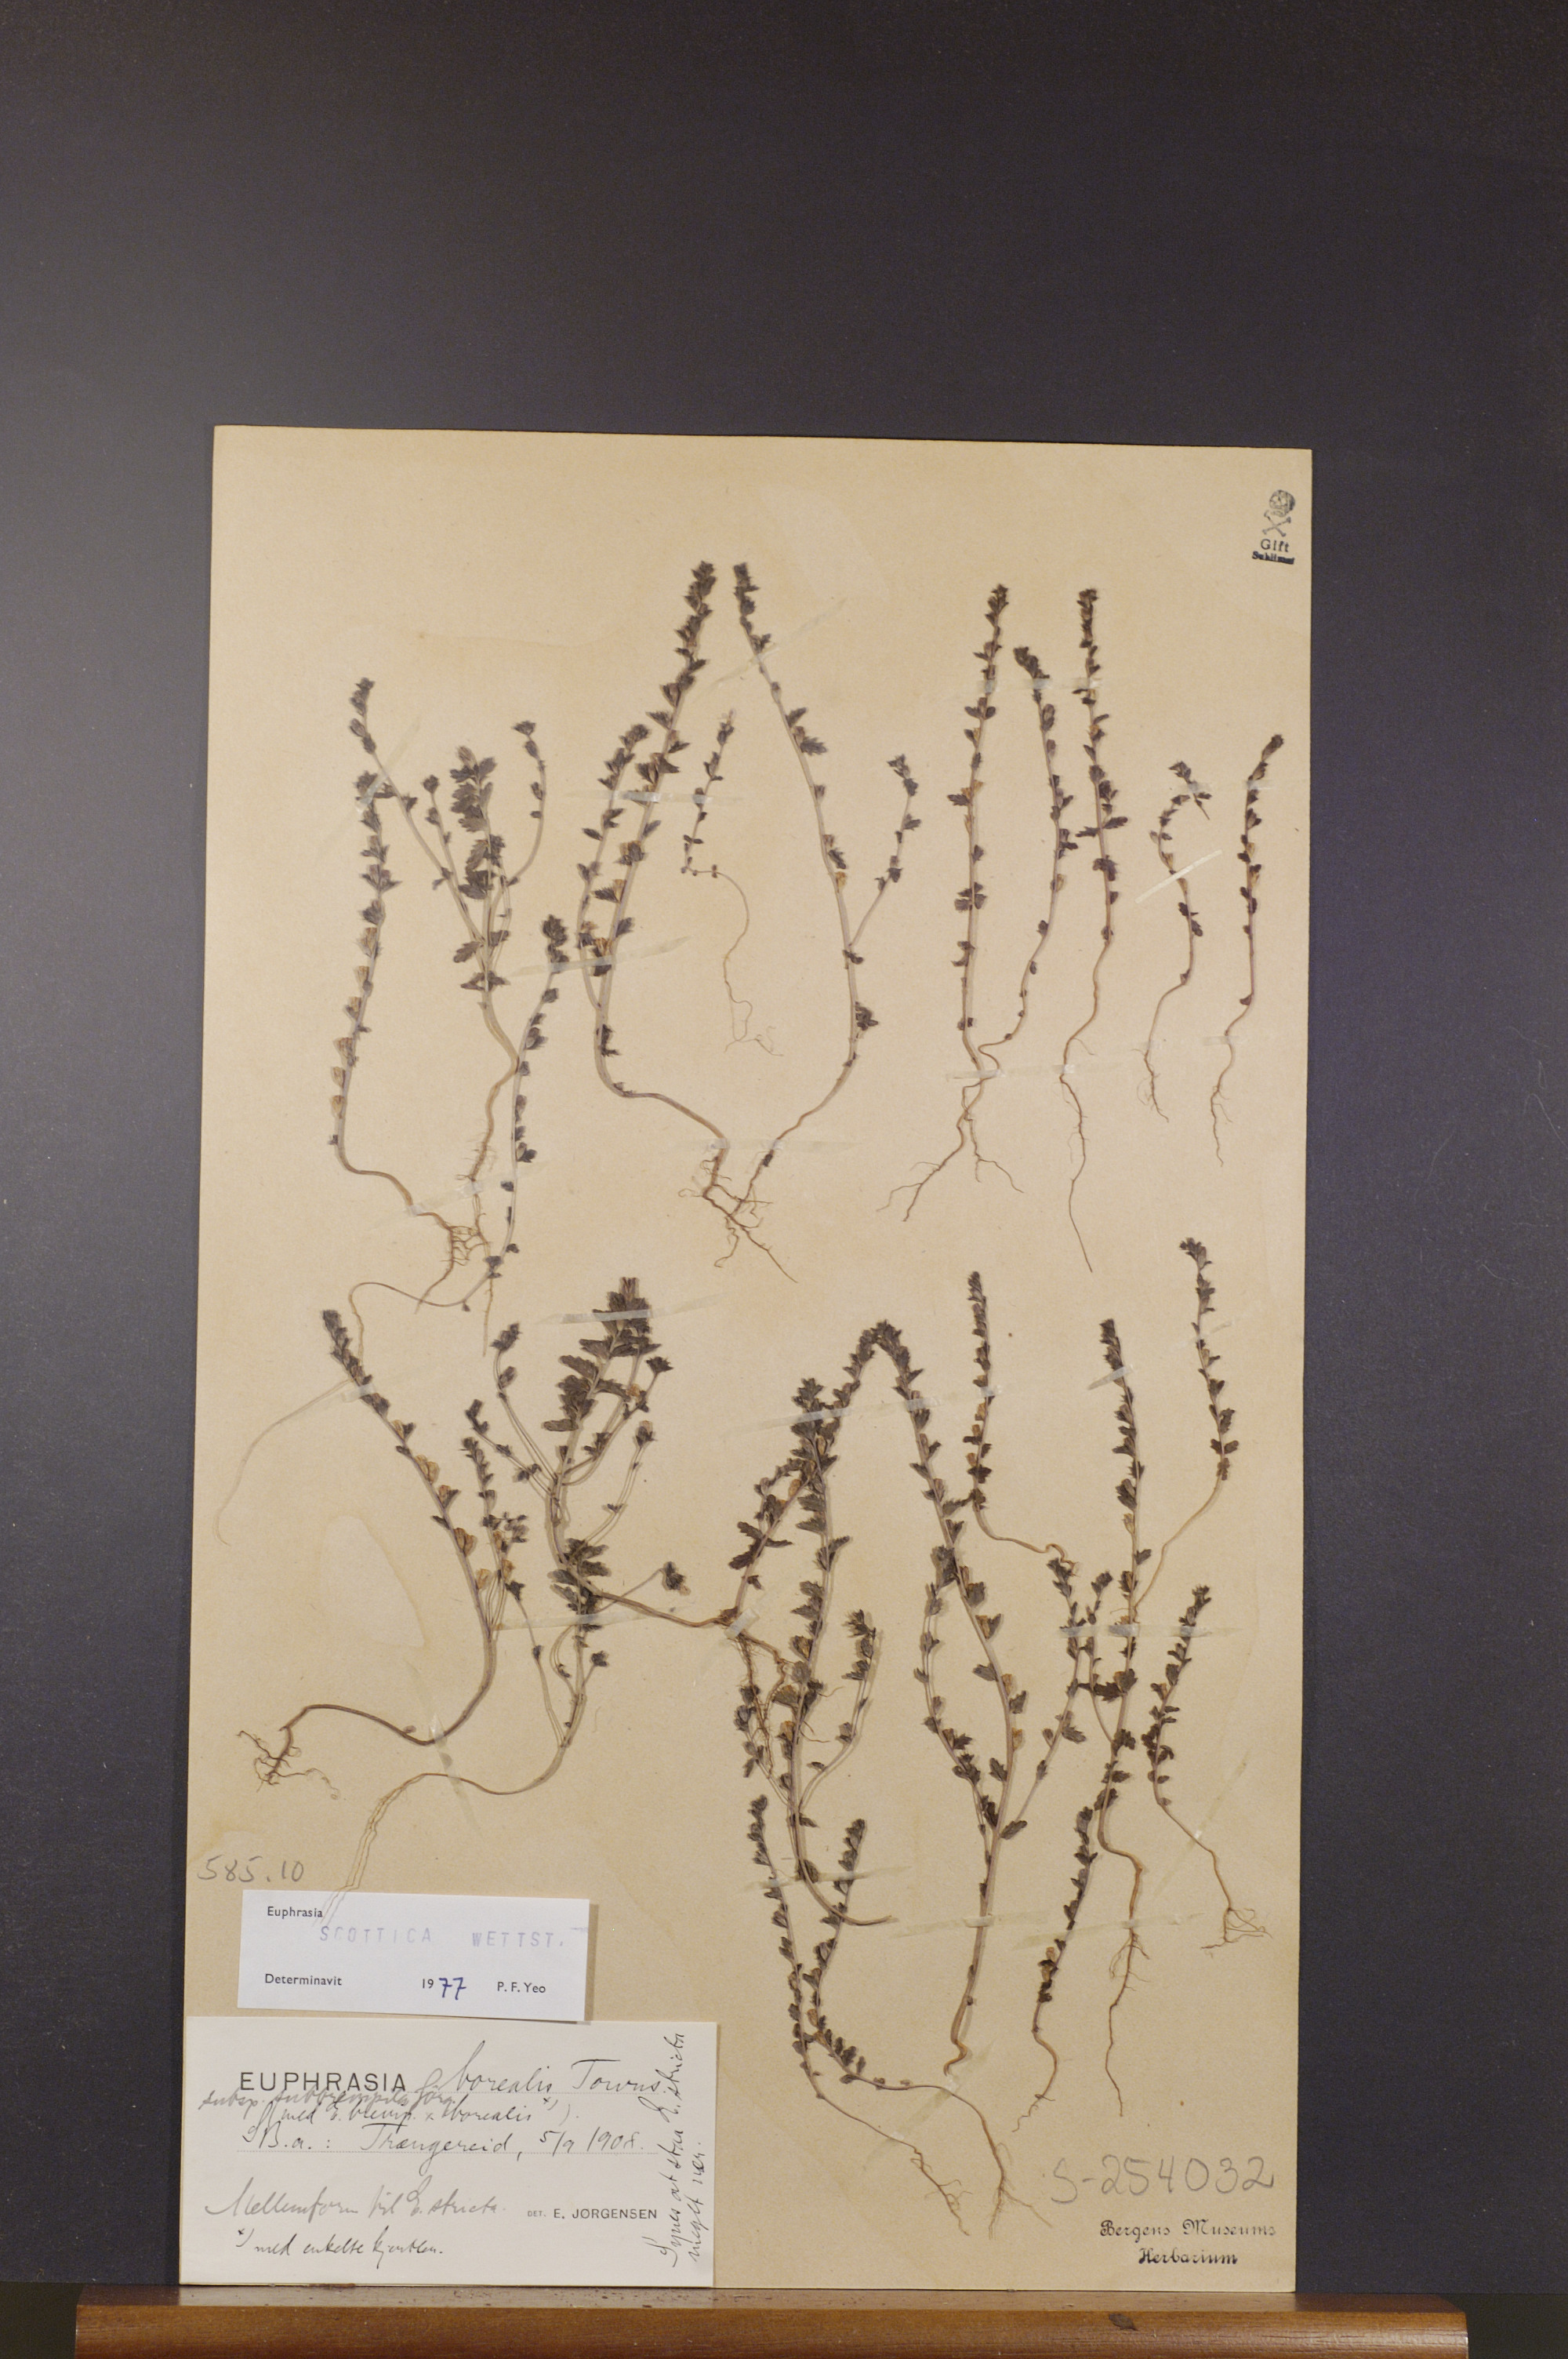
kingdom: Plantae
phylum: Tracheophyta
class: Magnoliopsida
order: Lamiales
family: Orobanchaceae
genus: Euphrasia
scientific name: Euphrasia scottica
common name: Slender scottish eyebright
